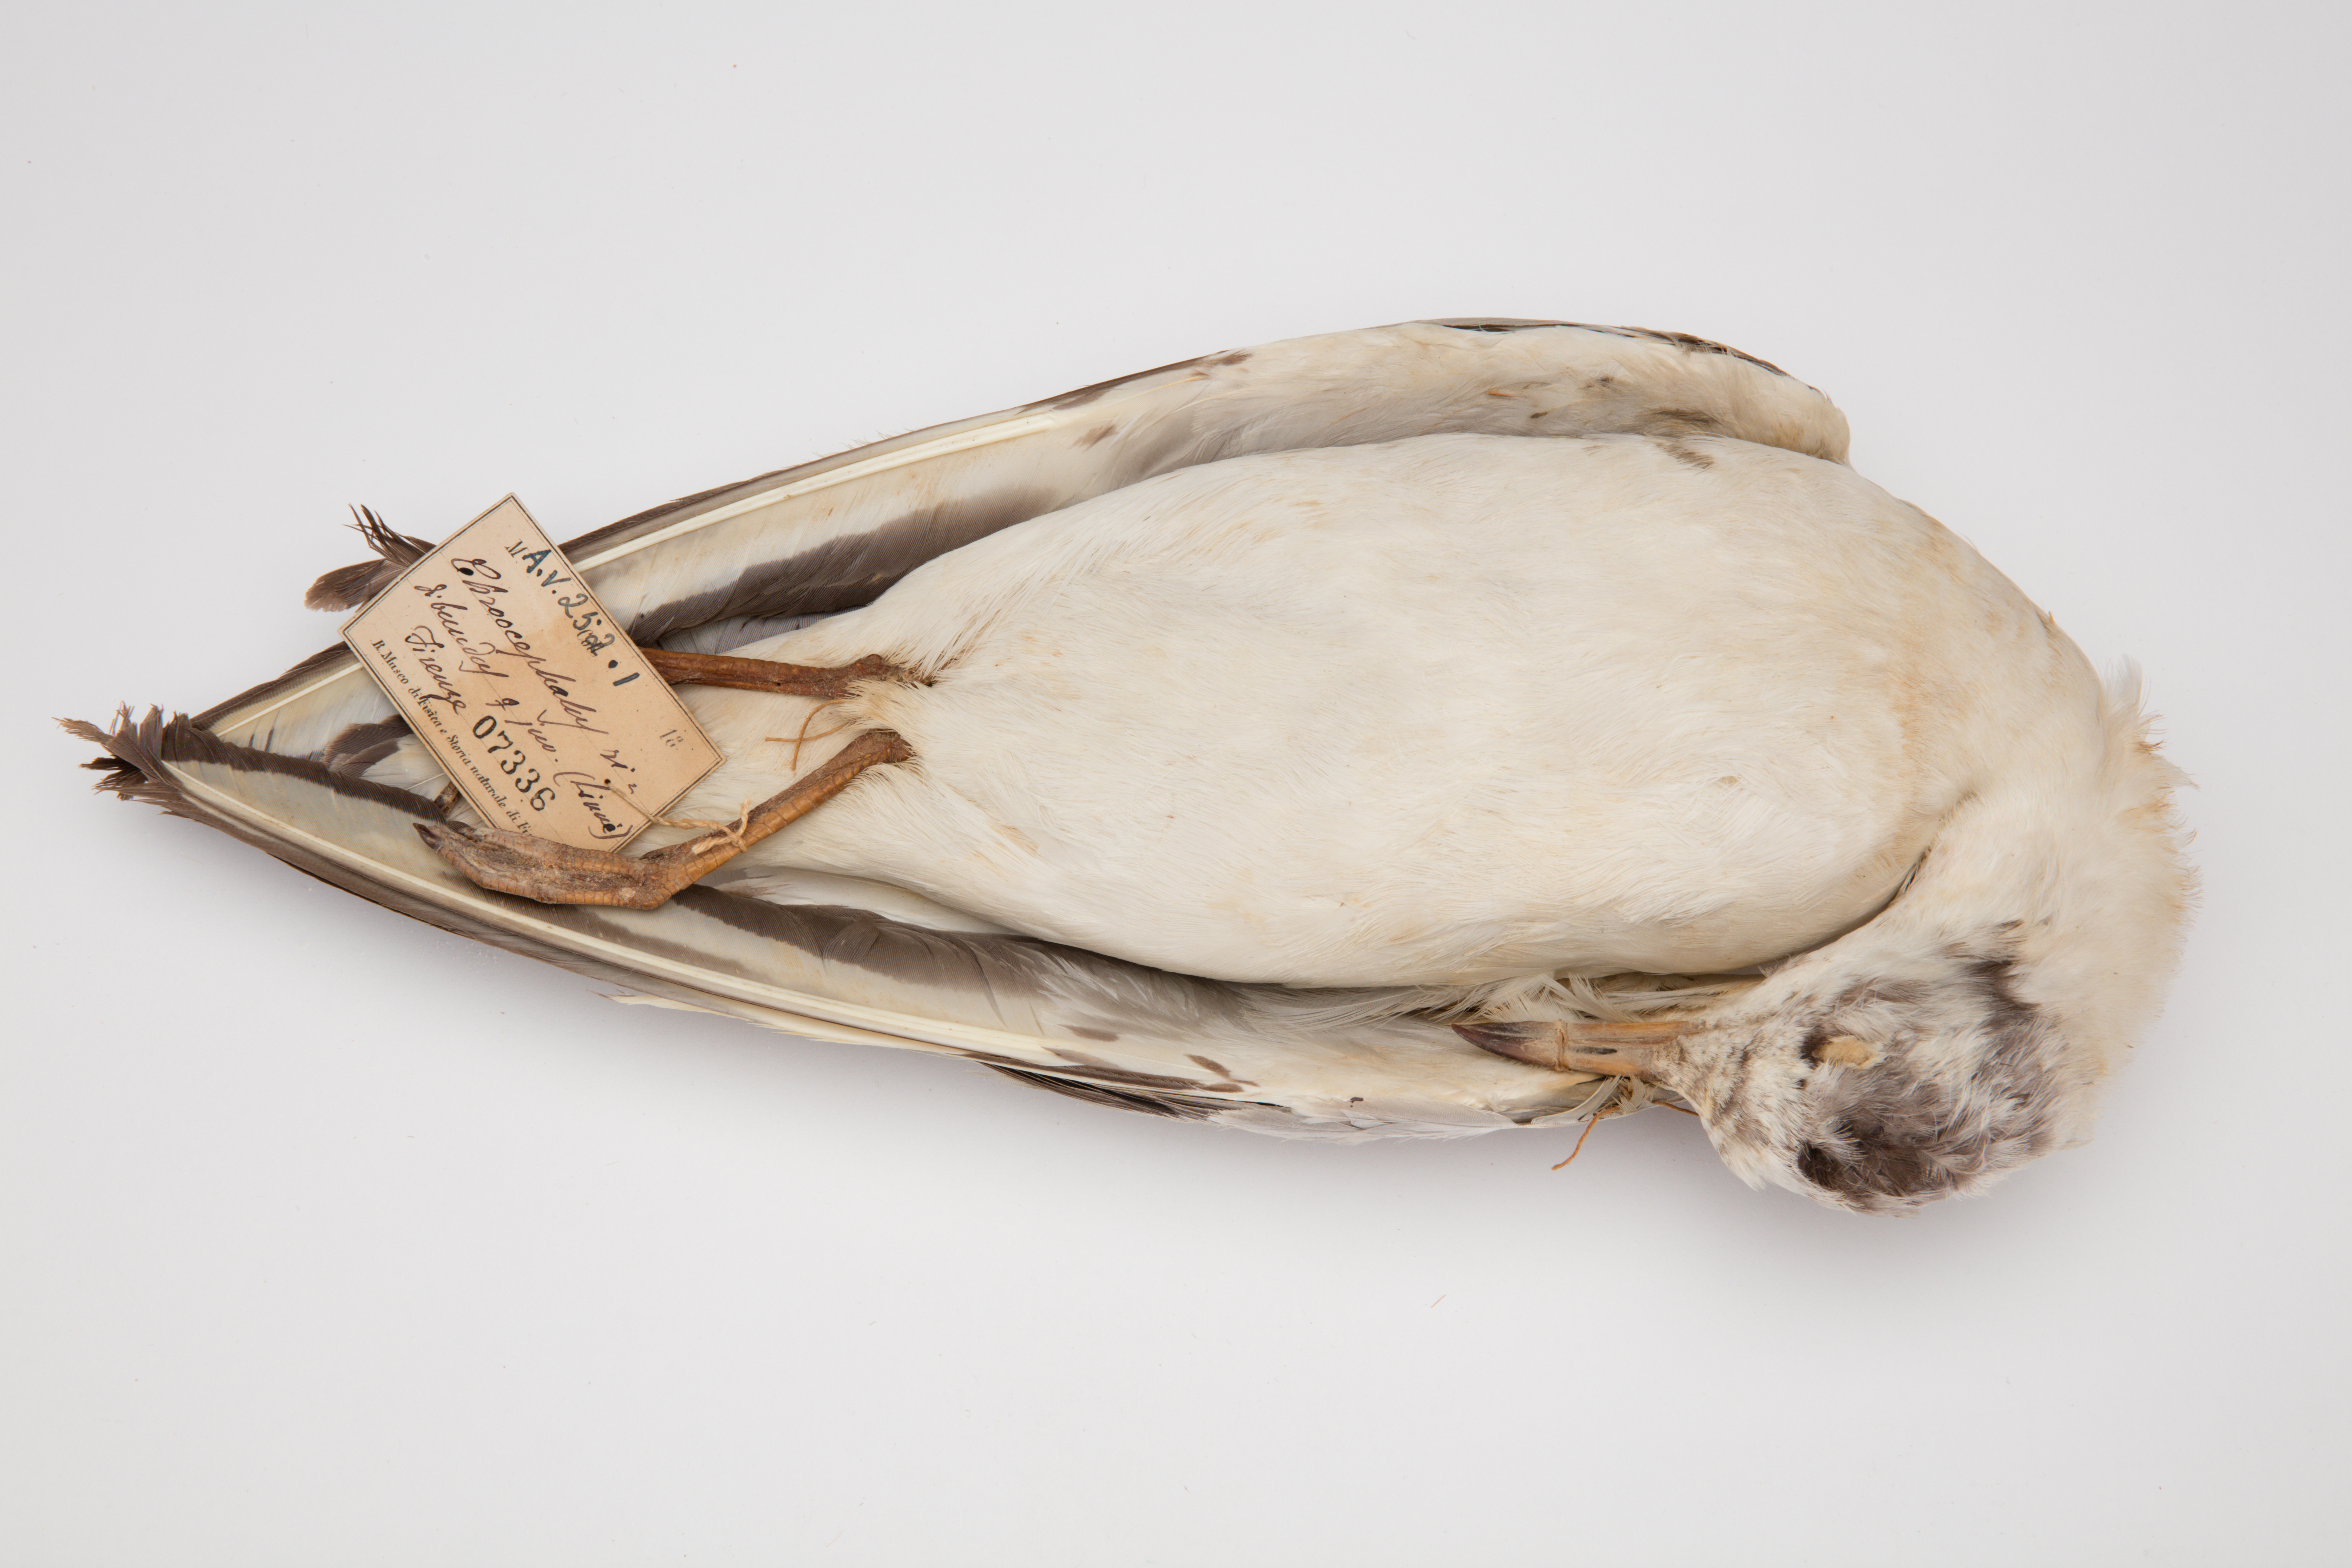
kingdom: Animalia
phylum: Chordata
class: Aves
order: Charadriiformes
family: Laridae
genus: Chroicocephalus
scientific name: Chroicocephalus ridibundus
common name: Black-headed gull
